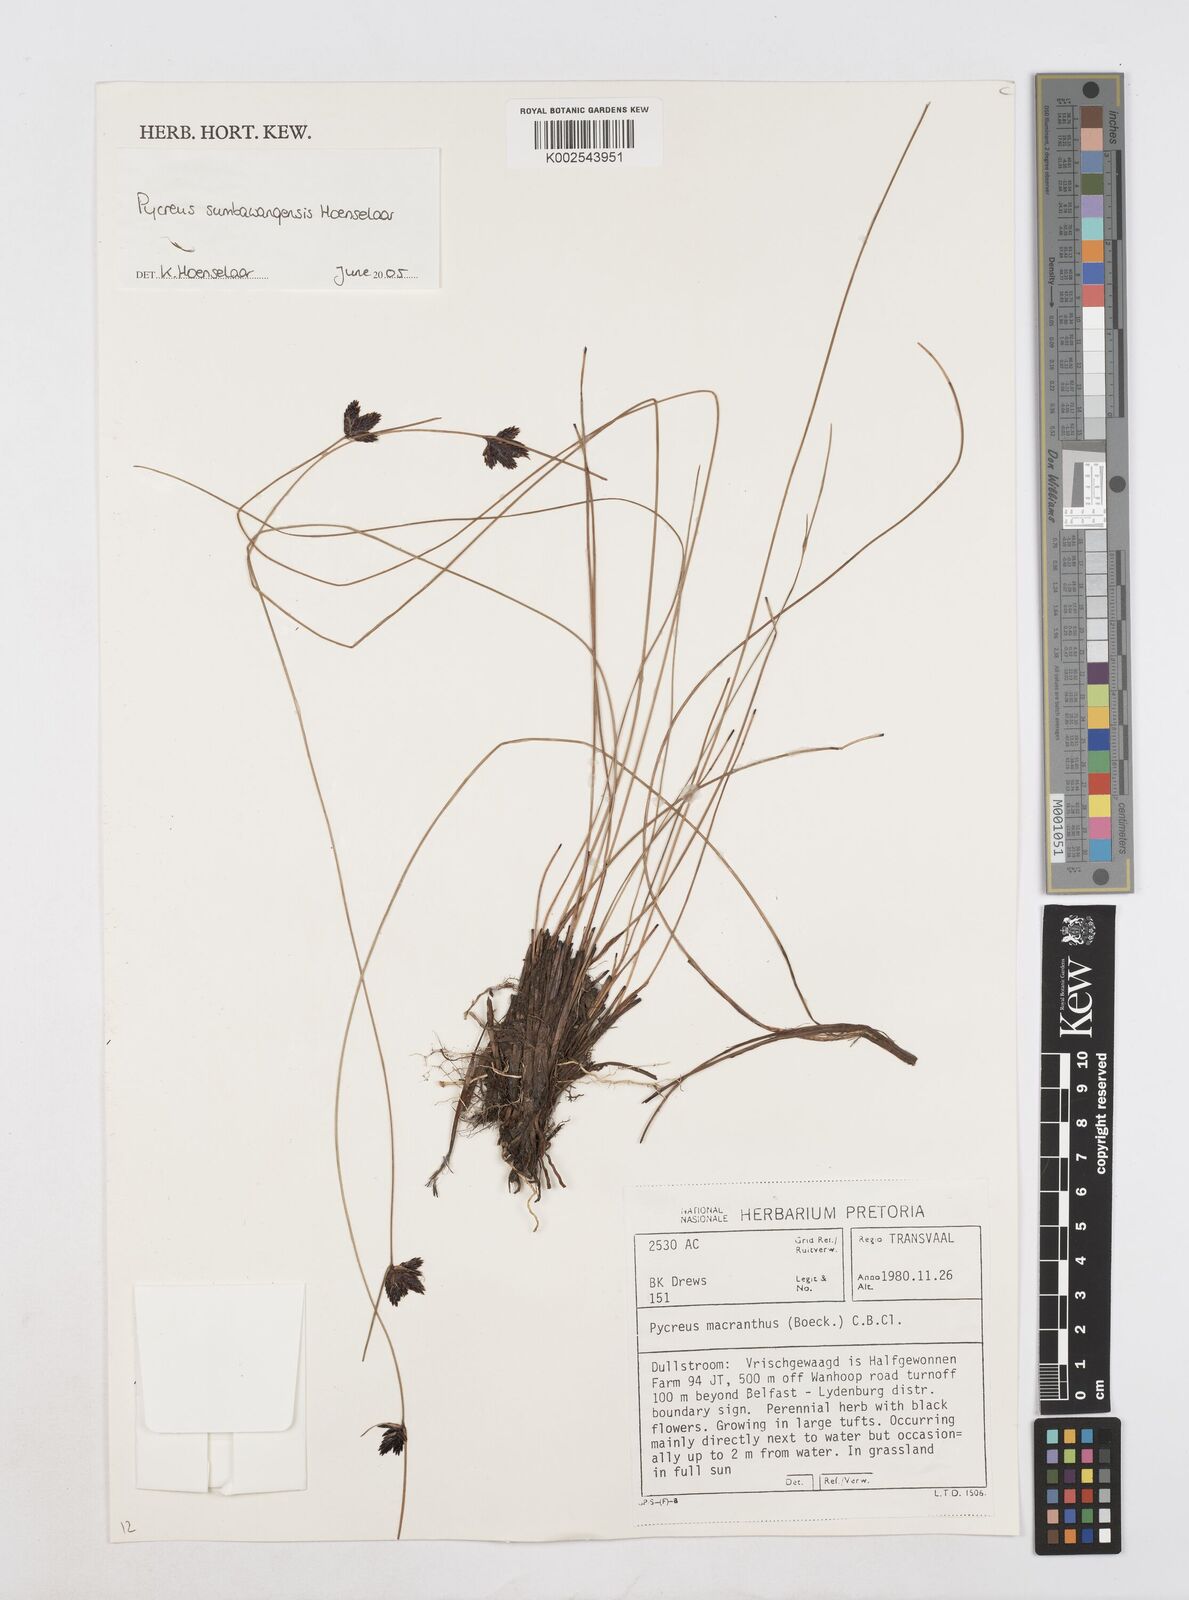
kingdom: Plantae
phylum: Tracheophyta
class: Liliopsida
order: Poales
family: Cyperaceae
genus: Cyperus
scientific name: Cyperus nigricans
